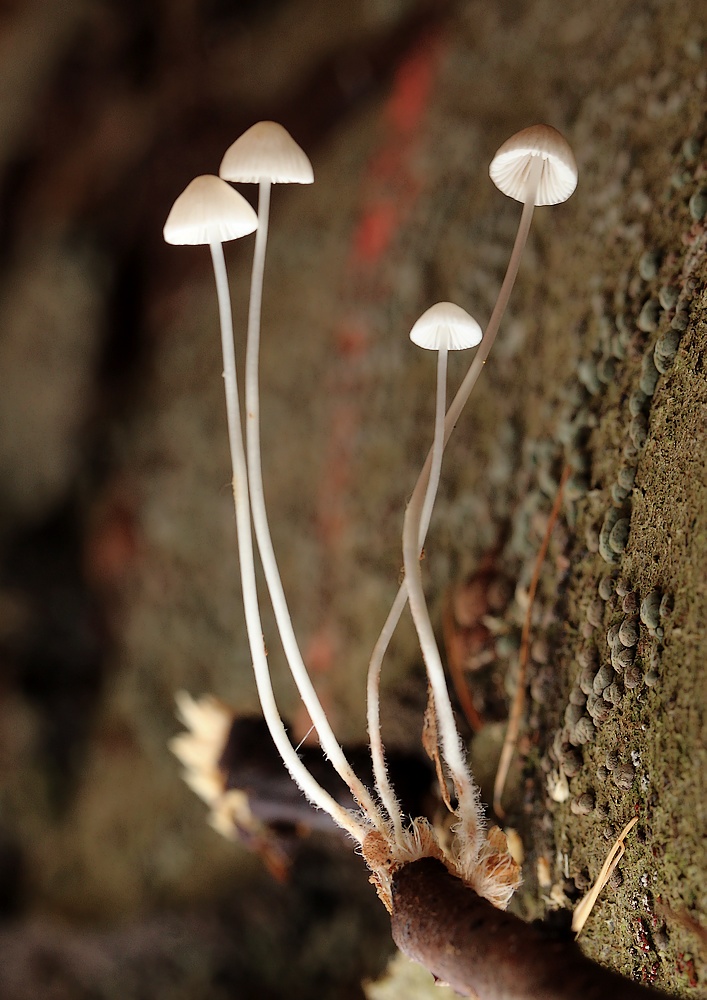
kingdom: Fungi
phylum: Basidiomycota
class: Agaricomycetes
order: Agaricales
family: Mycenaceae
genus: Mycena
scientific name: Mycena vitilis
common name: blankstokket huesvamp
